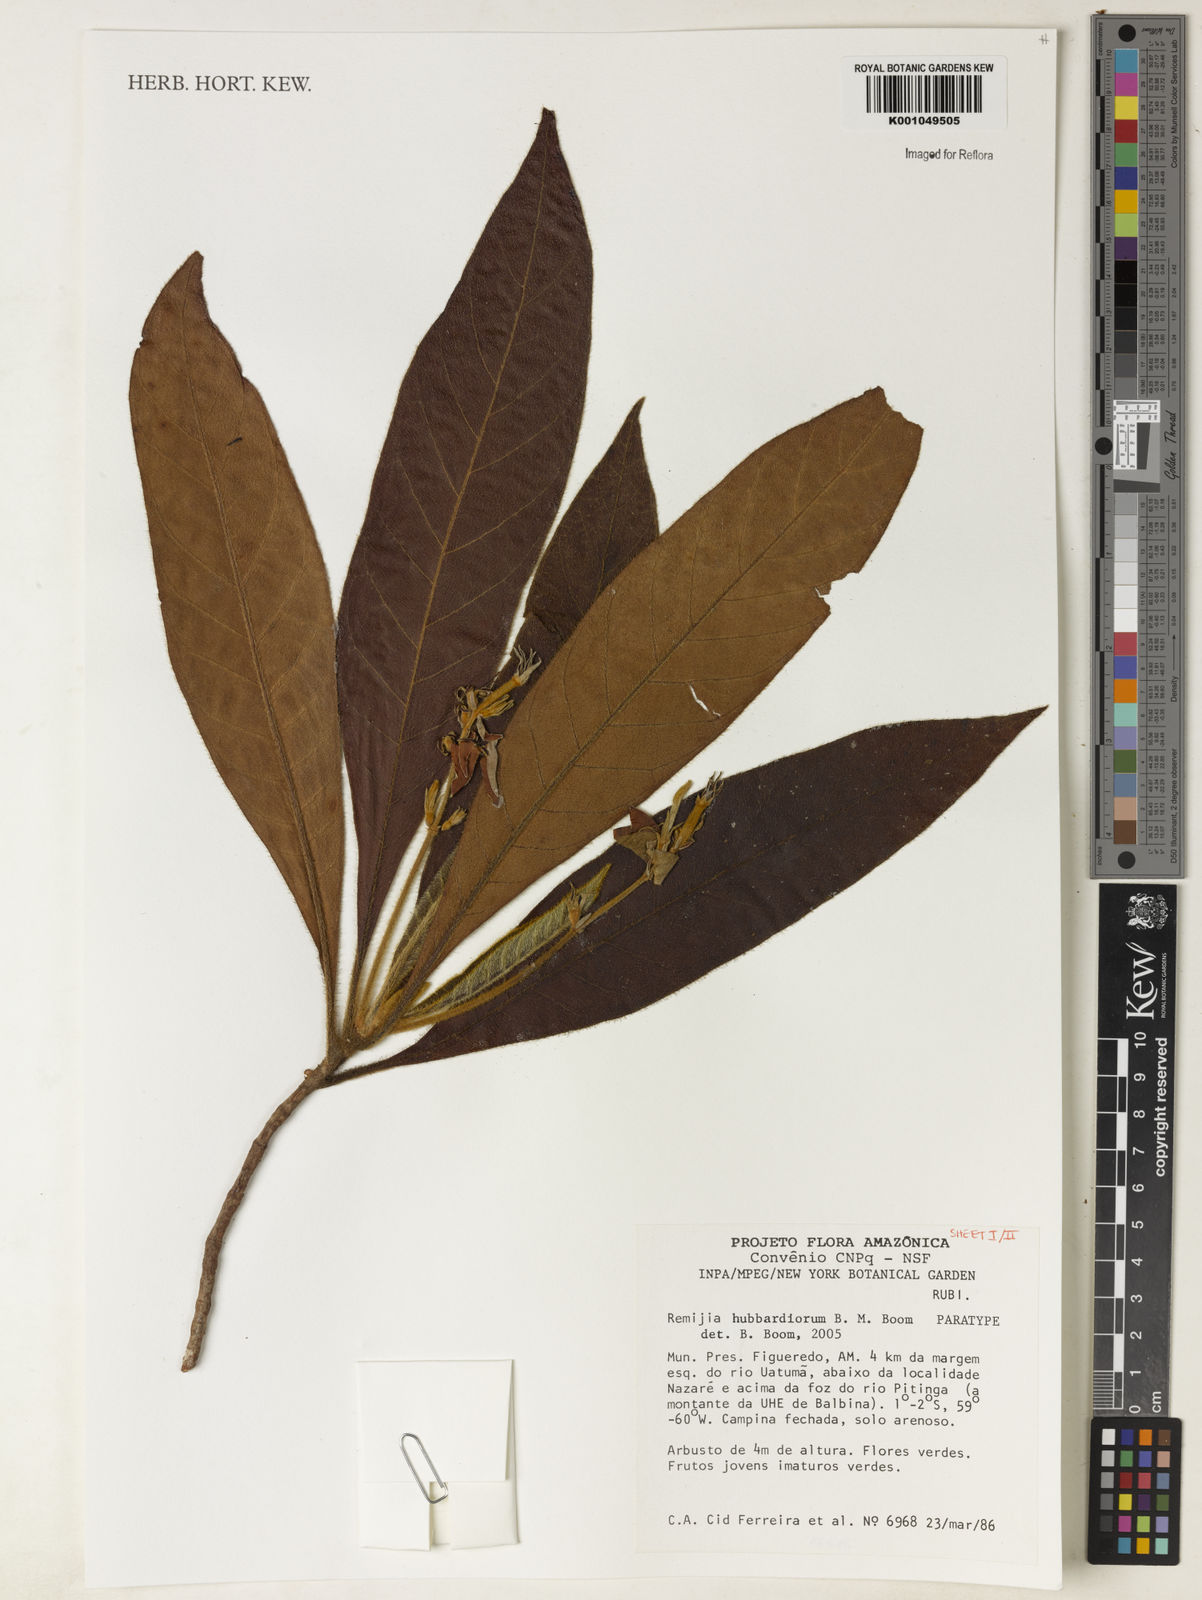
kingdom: Plantae
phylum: Tracheophyta
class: Magnoliopsida
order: Gentianales
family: Rubiaceae
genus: Remijia
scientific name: Remijia hubbardiorum
